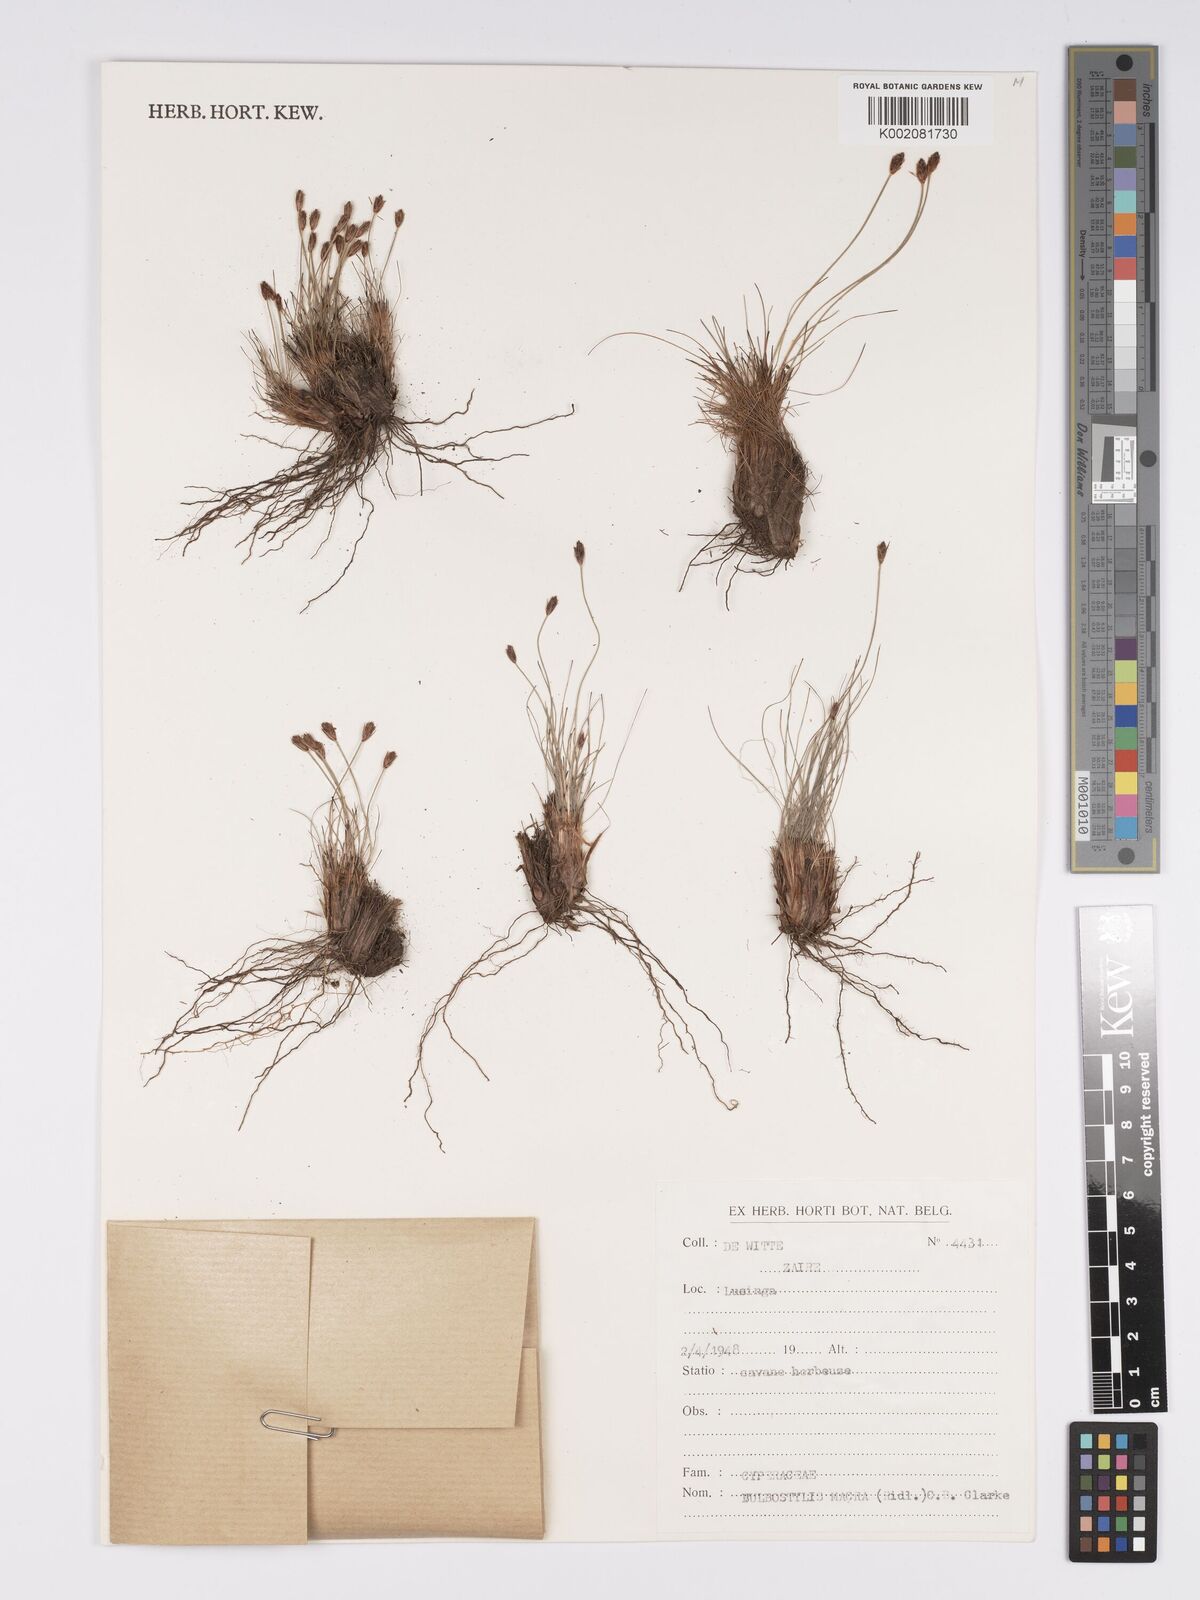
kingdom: Plantae
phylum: Tracheophyta
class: Liliopsida
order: Poales
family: Cyperaceae
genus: Bulbostylis
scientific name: Bulbostylis macra
